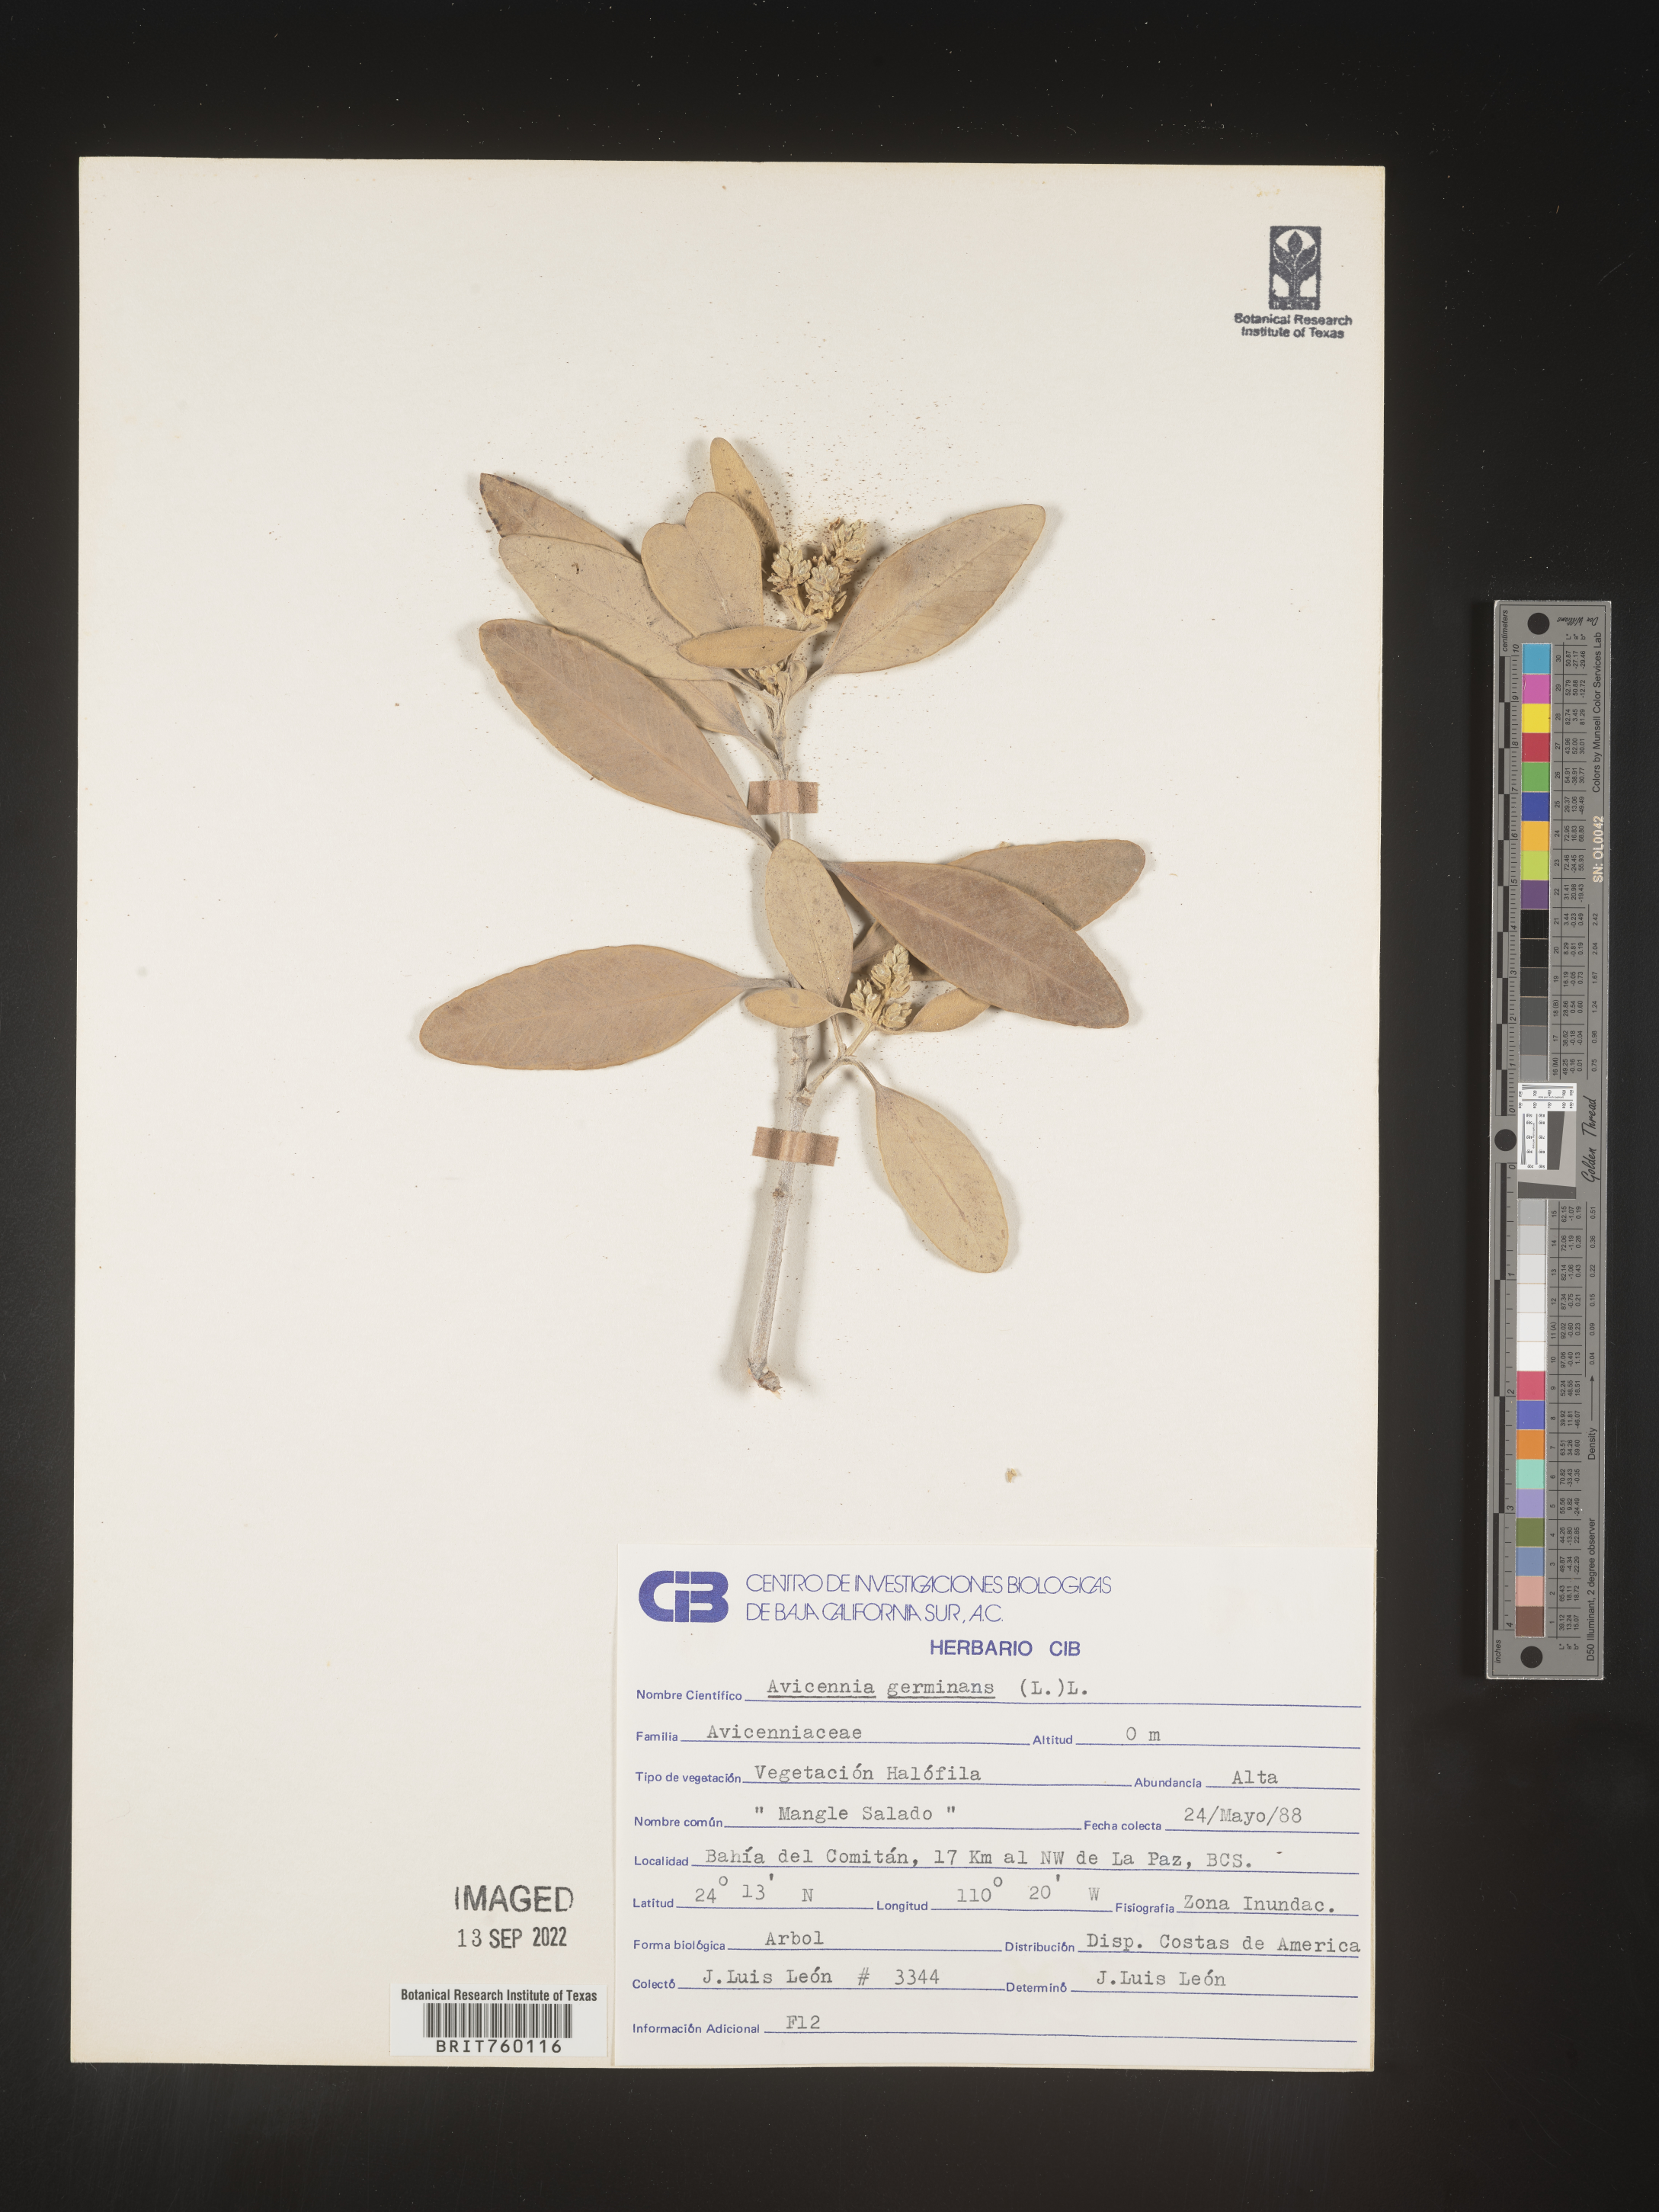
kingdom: Plantae
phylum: Tracheophyta
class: Magnoliopsida
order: Lamiales
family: Acanthaceae
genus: Avicennia
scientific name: Avicennia
